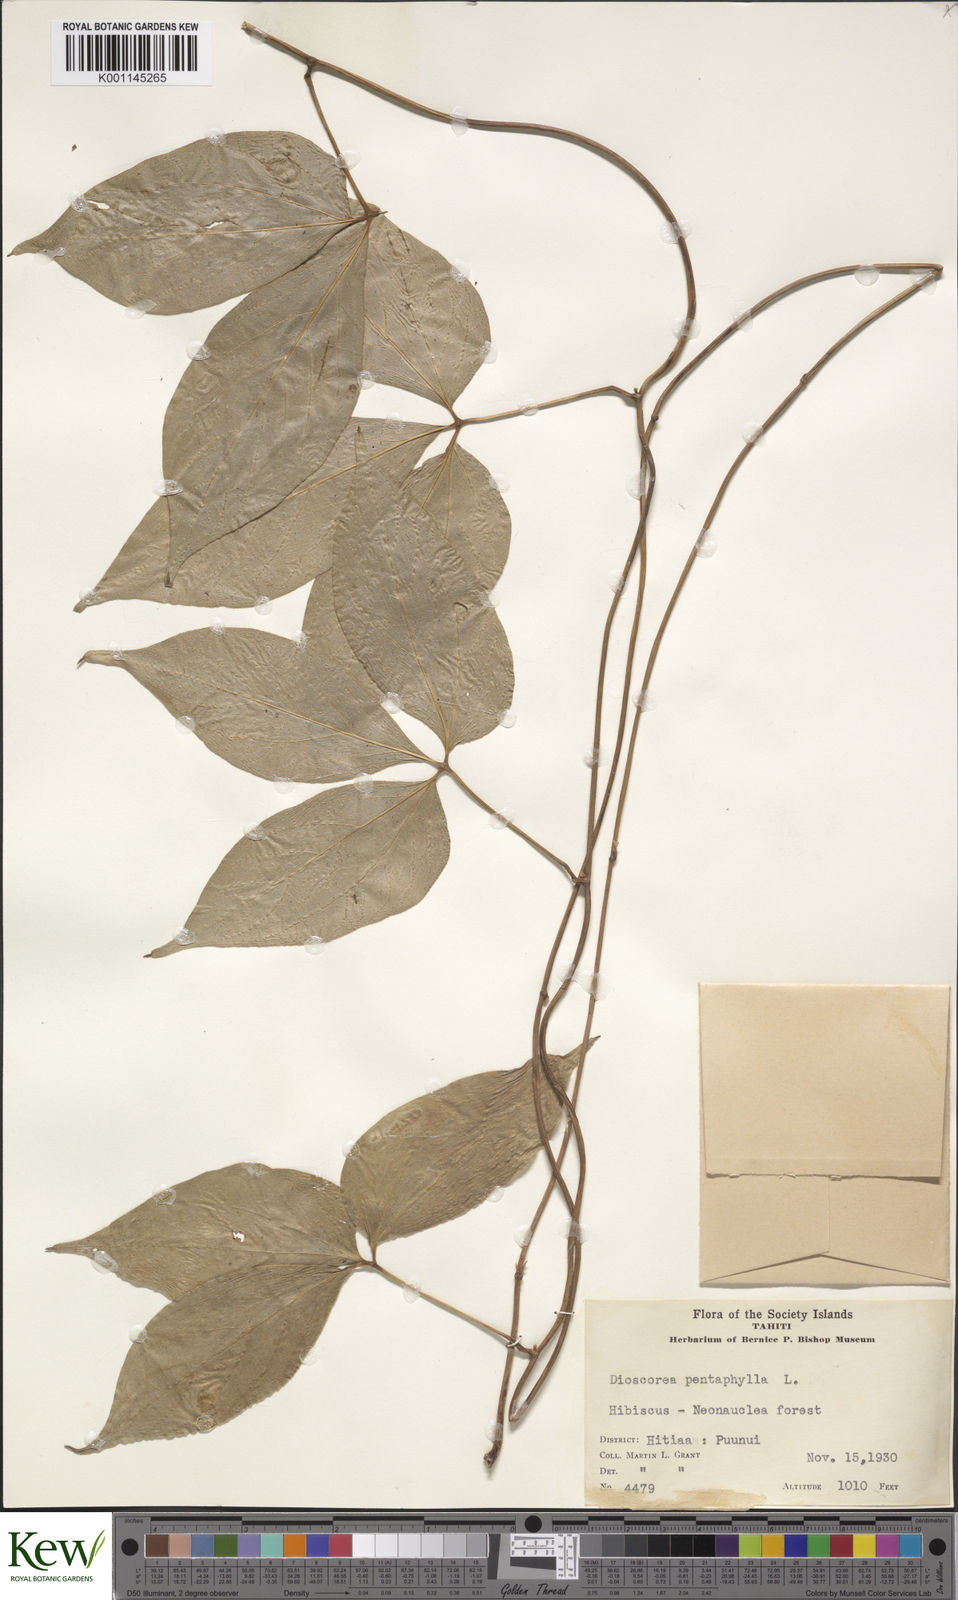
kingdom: Plantae
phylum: Tracheophyta
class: Liliopsida
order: Dioscoreales
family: Dioscoreaceae
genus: Dioscorea
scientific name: Dioscorea pentaphylla
